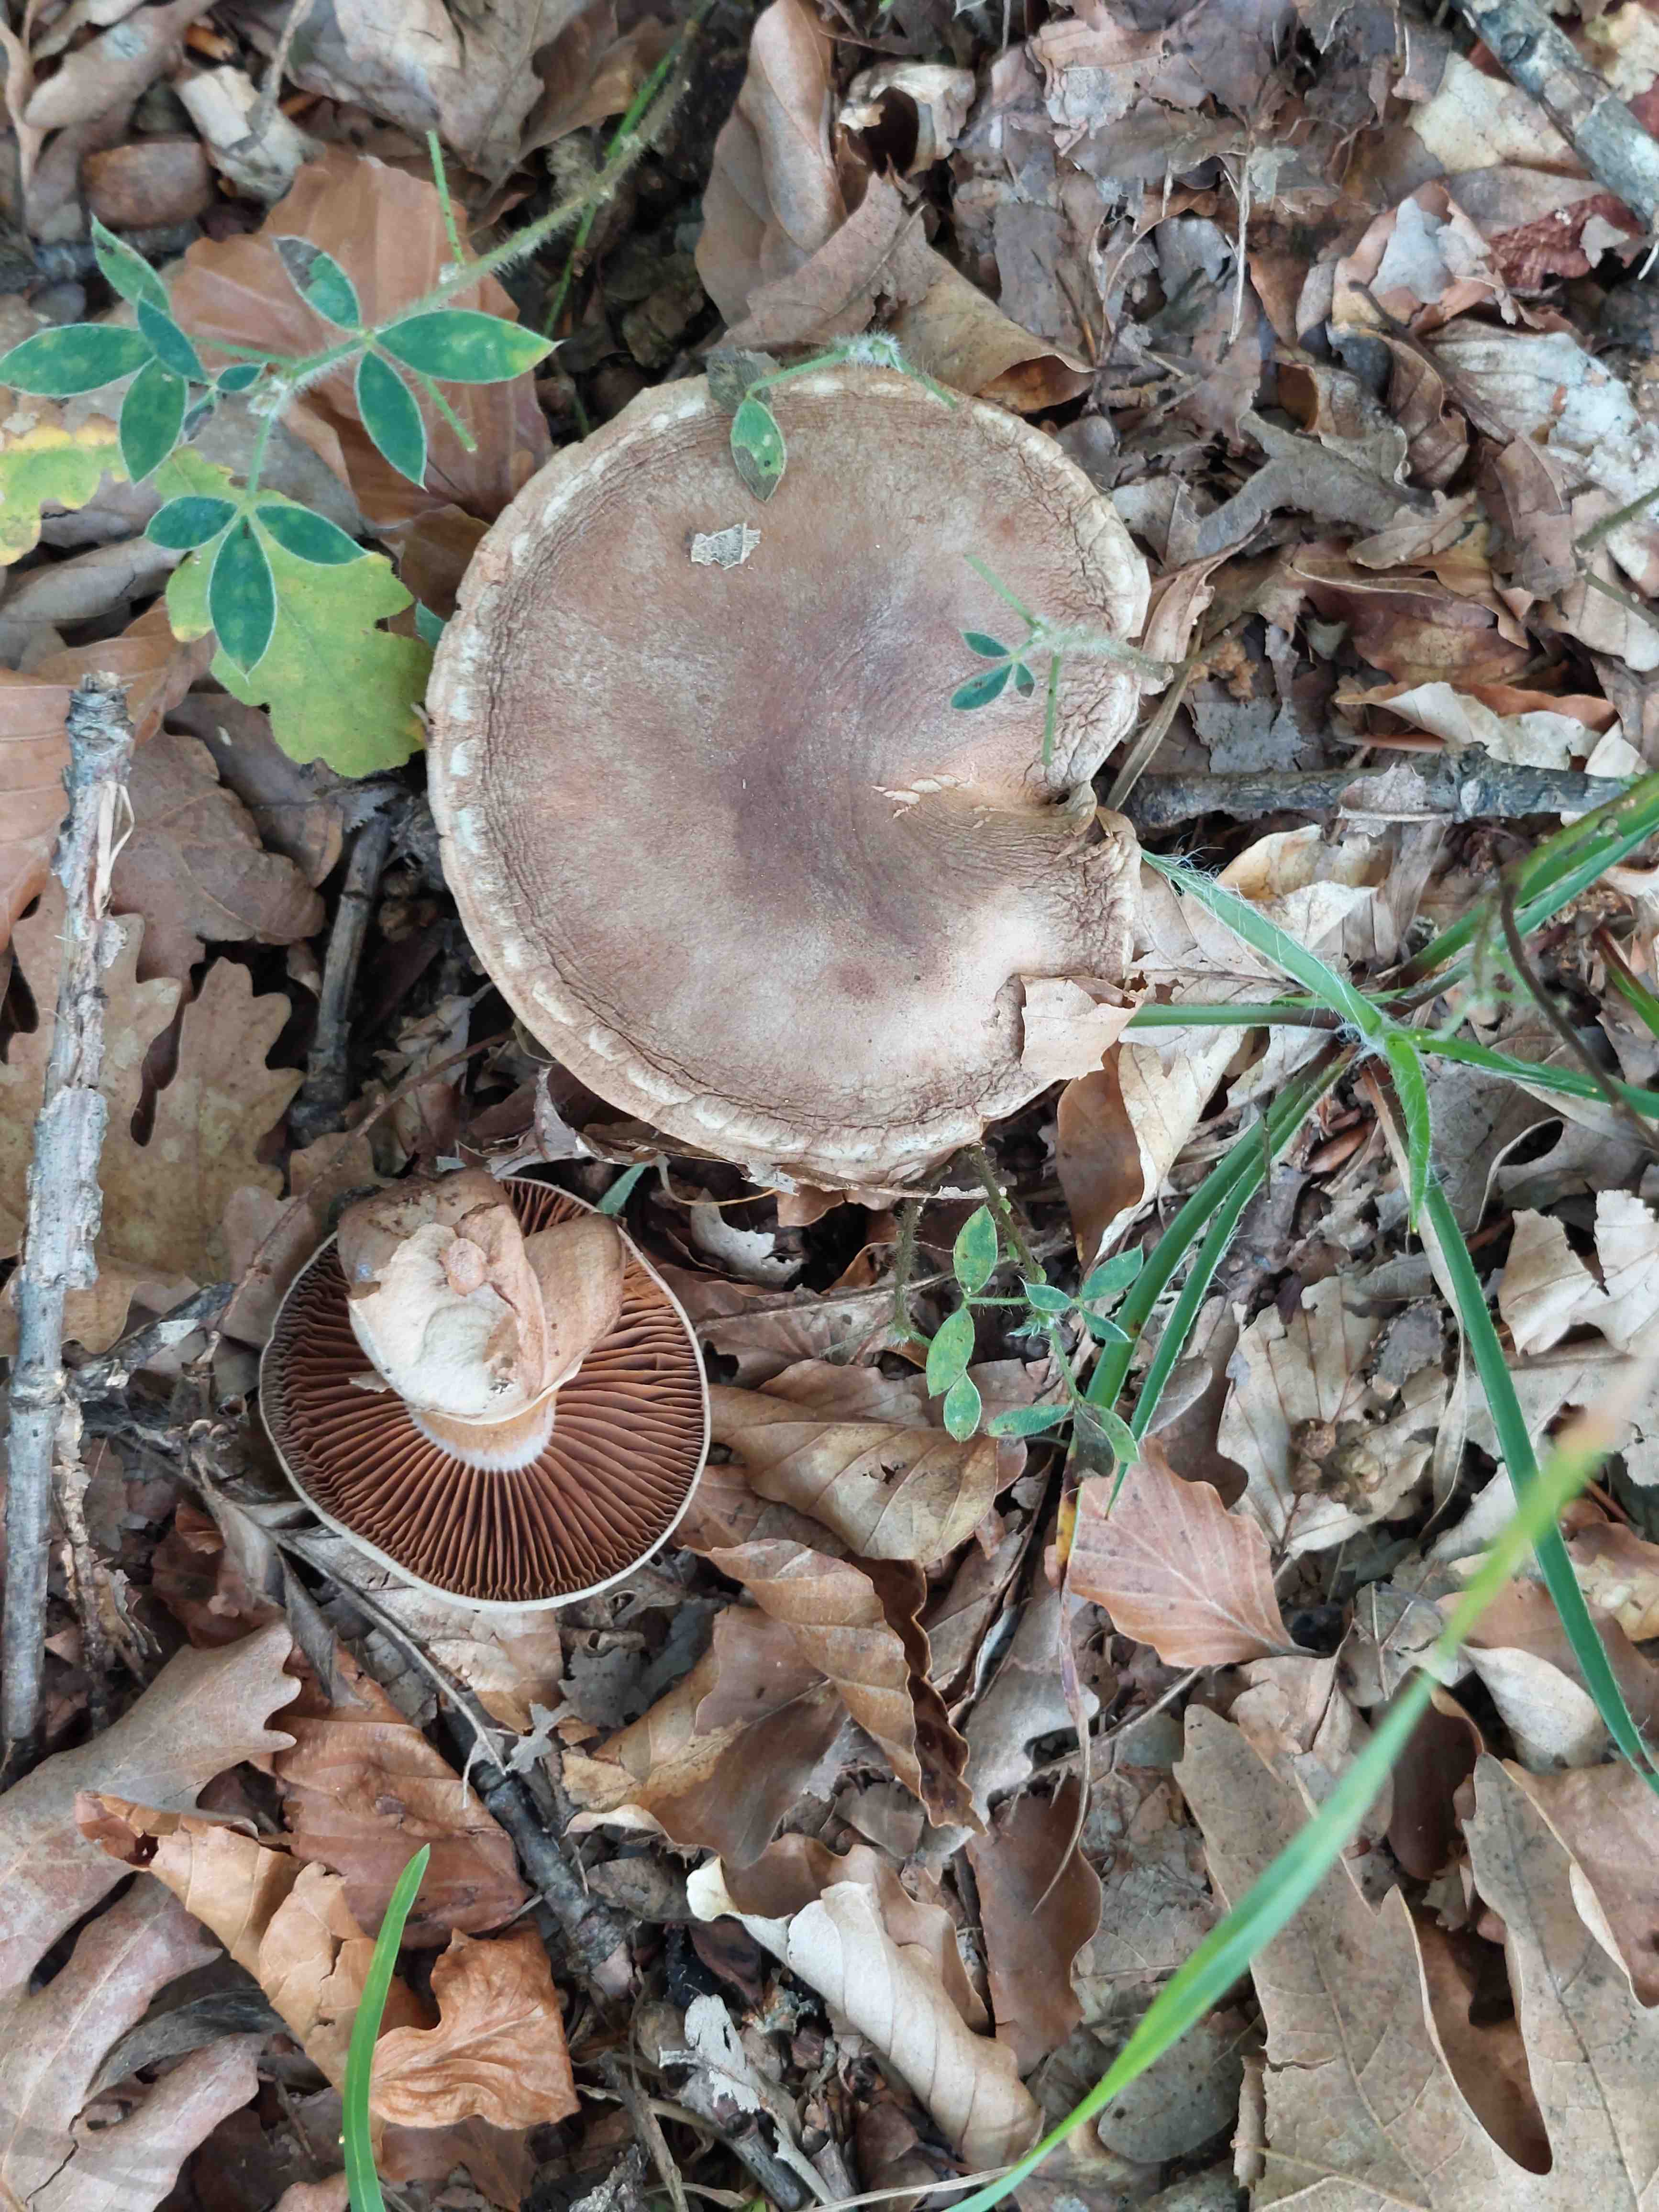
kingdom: Fungi
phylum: Basidiomycota
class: Agaricomycetes
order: Agaricales
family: Cortinariaceae
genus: Cortinarius
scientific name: Cortinarius torvus
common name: champignonagtig slørhat
